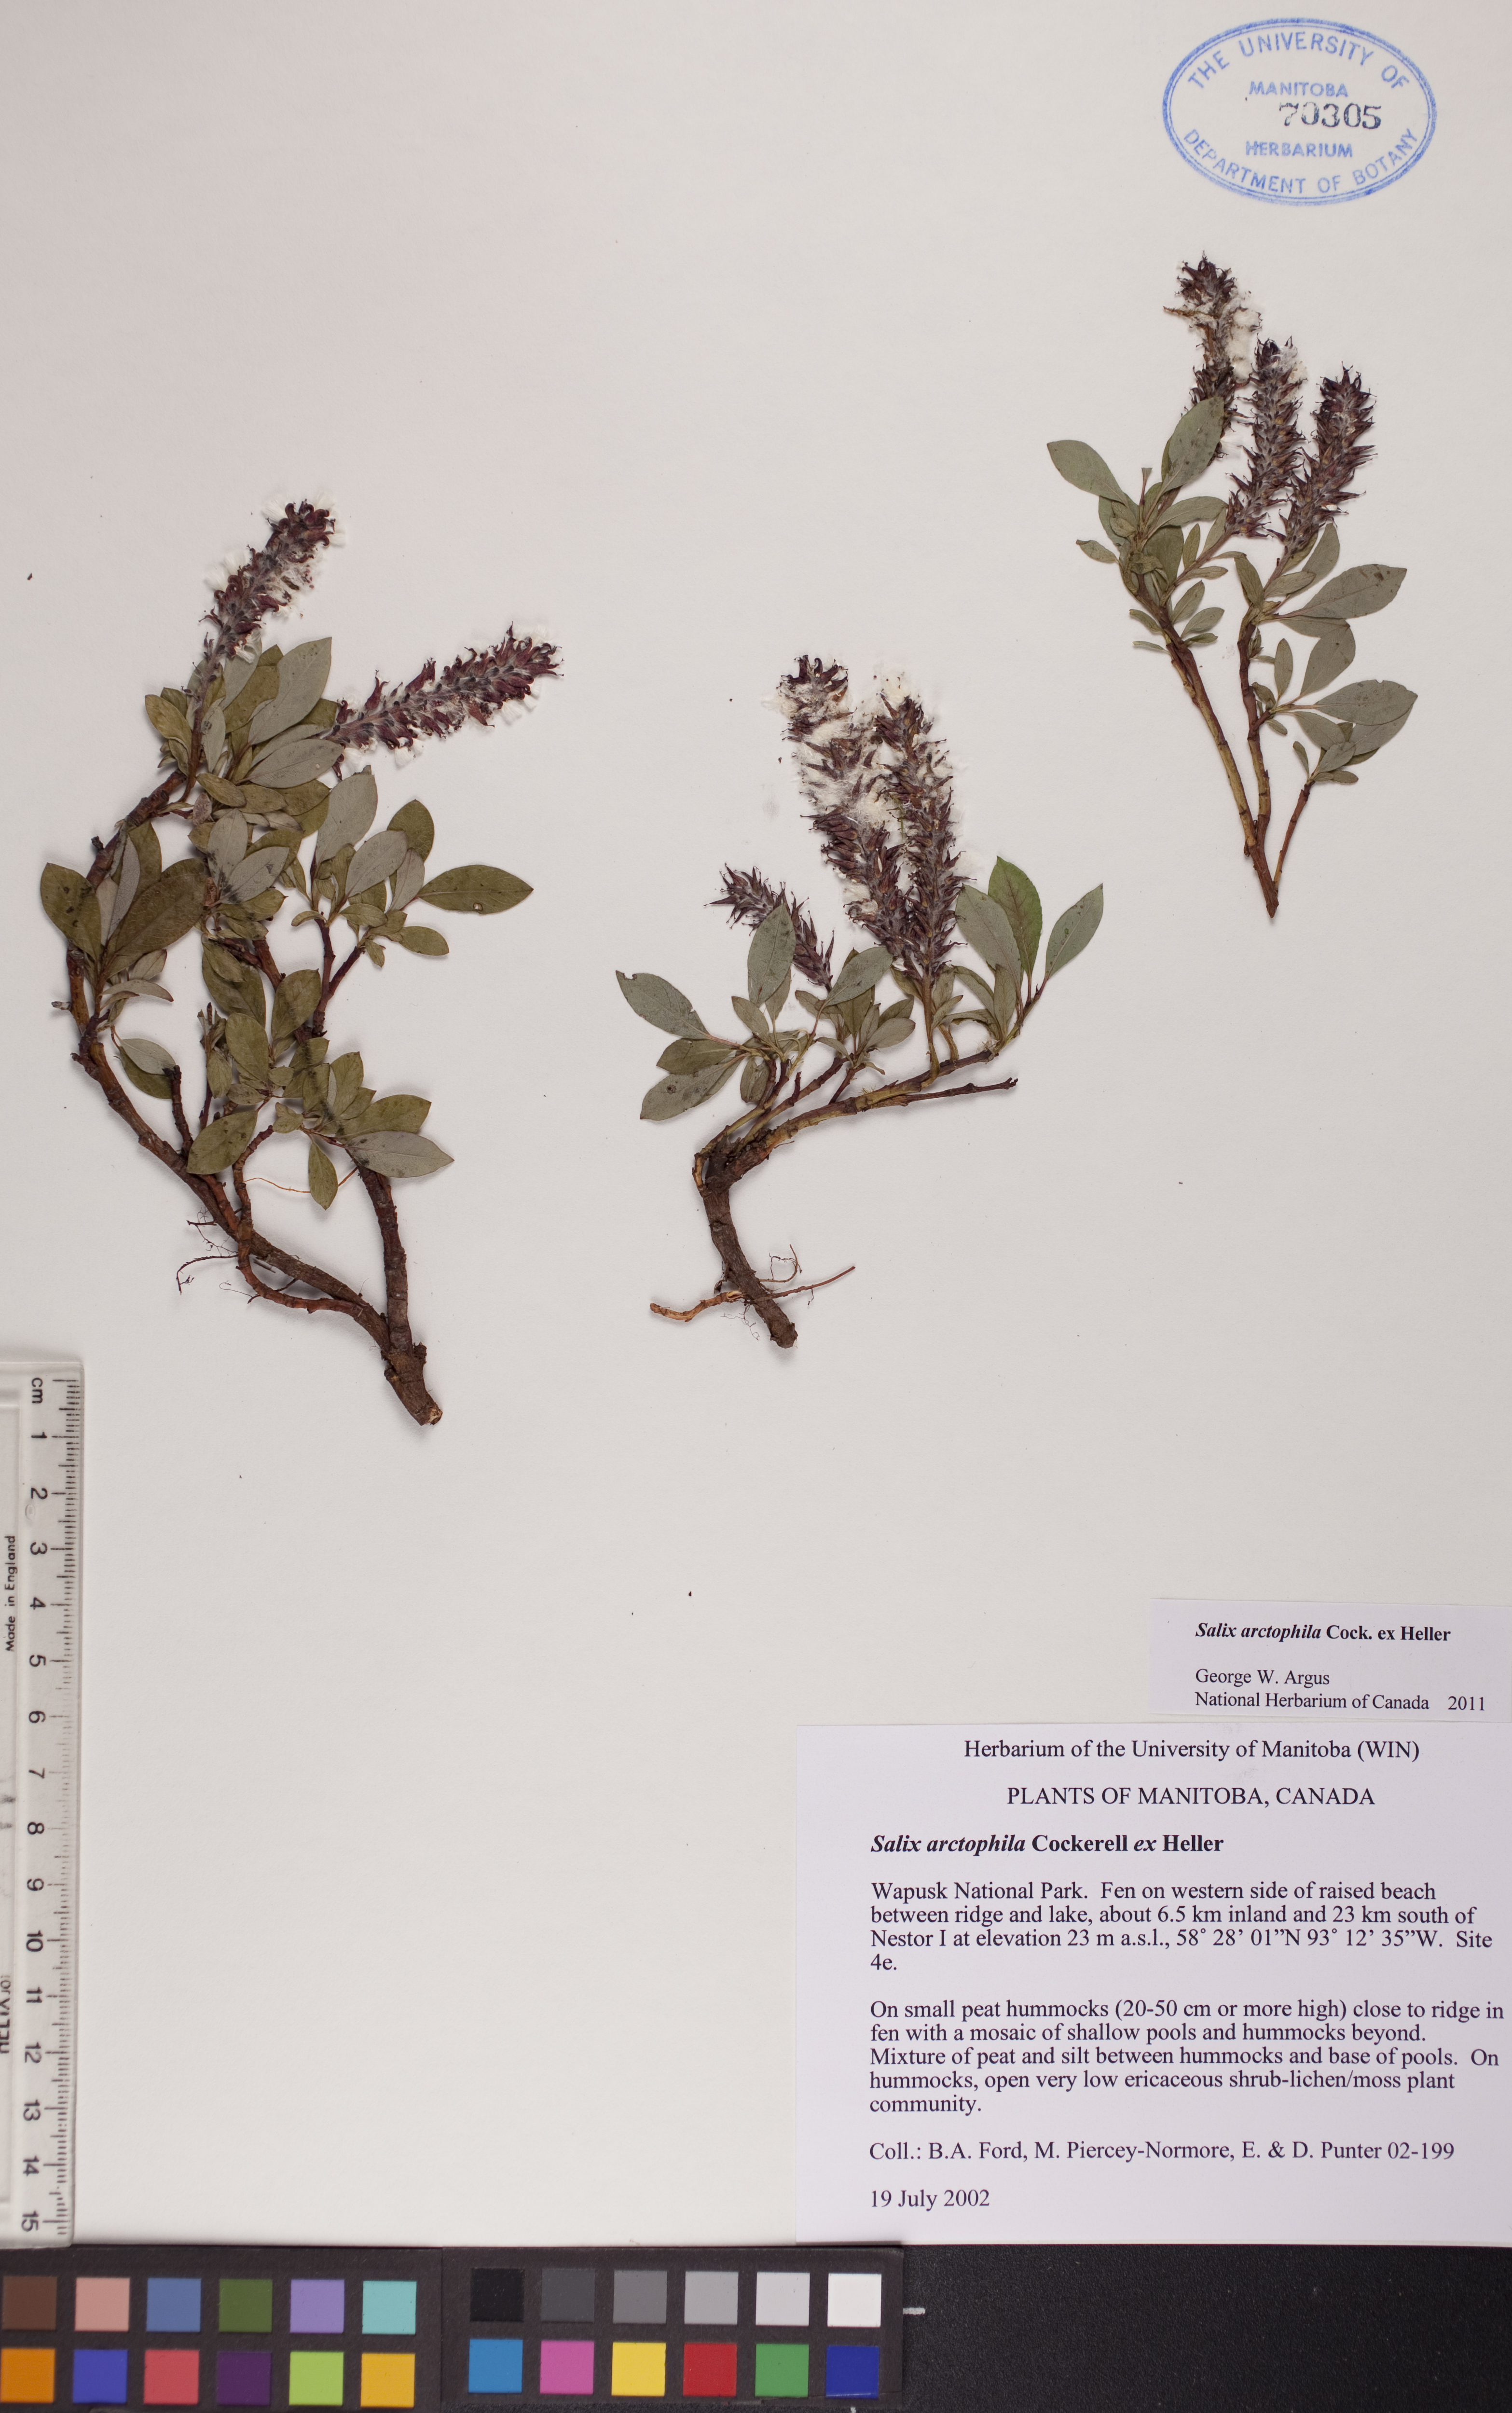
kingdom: Plantae
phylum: Tracheophyta
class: Magnoliopsida
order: Malpighiales
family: Salicaceae
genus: Salix
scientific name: Salix arctophila
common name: Greenland willow
